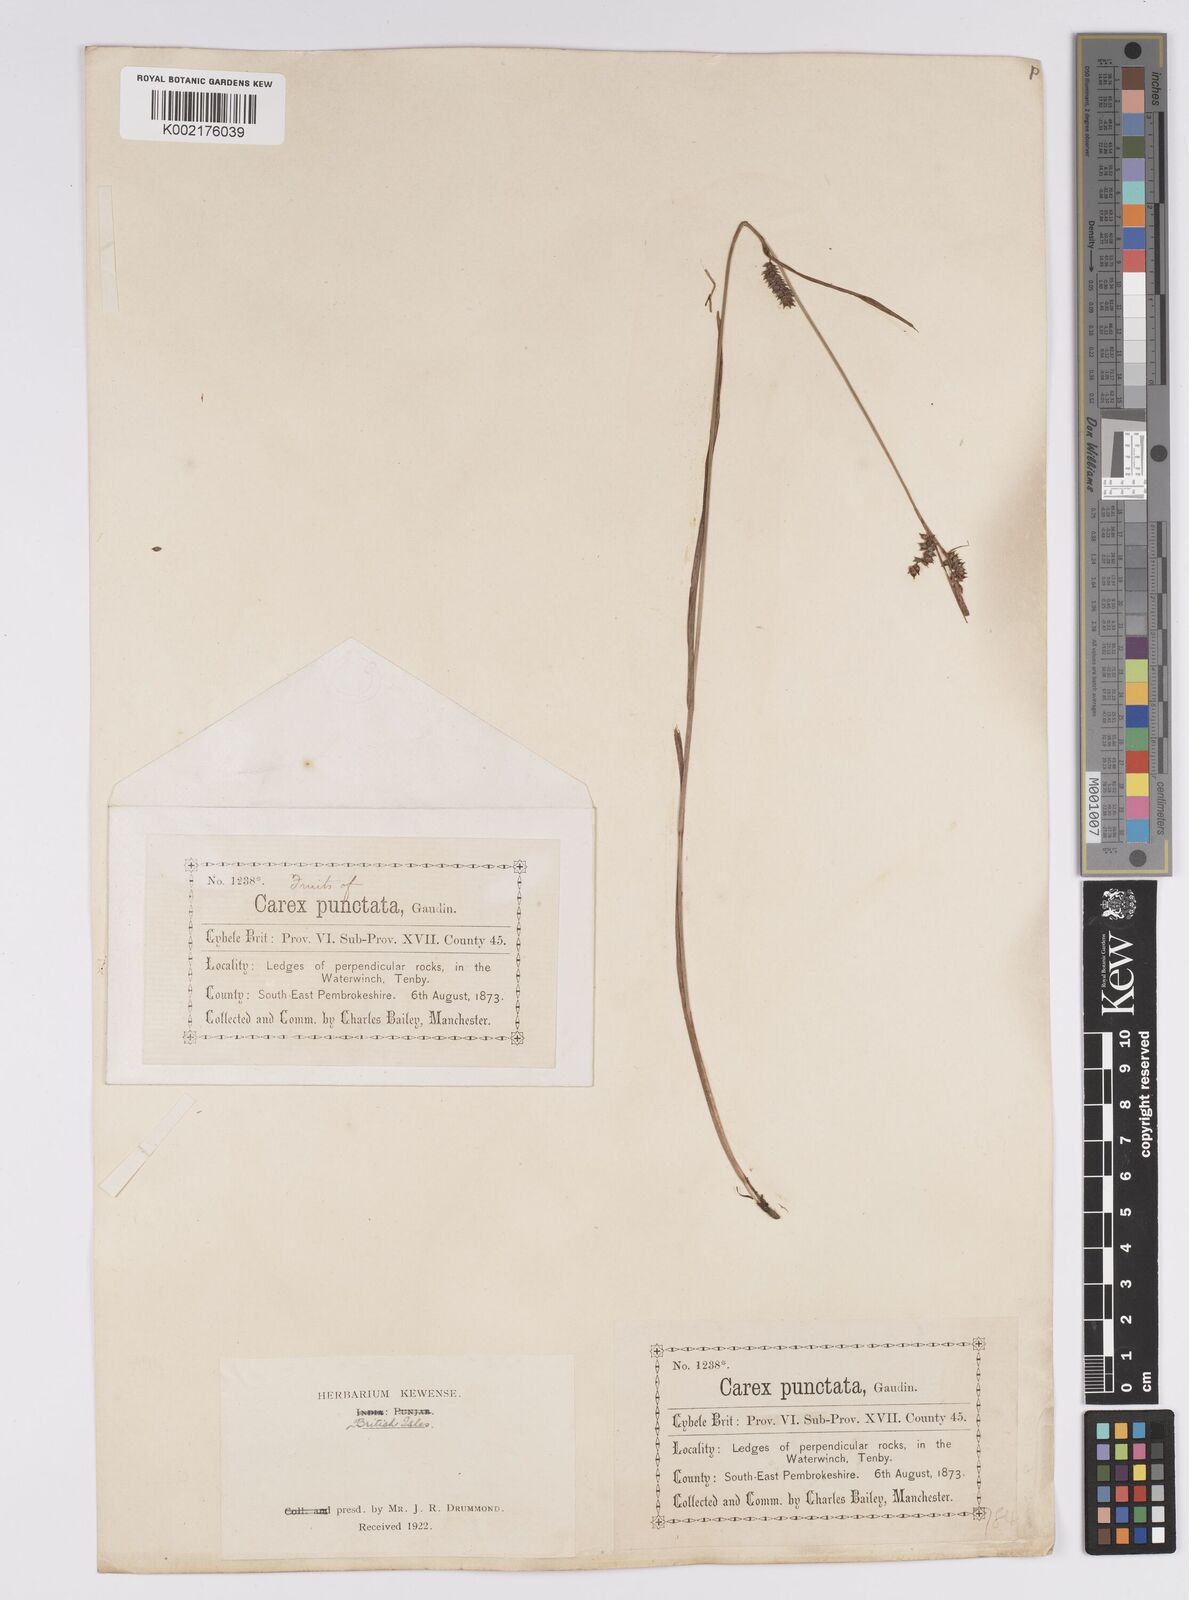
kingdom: Plantae
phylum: Tracheophyta
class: Liliopsida
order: Poales
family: Cyperaceae
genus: Carex
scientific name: Carex punctata
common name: Dotted sedge
